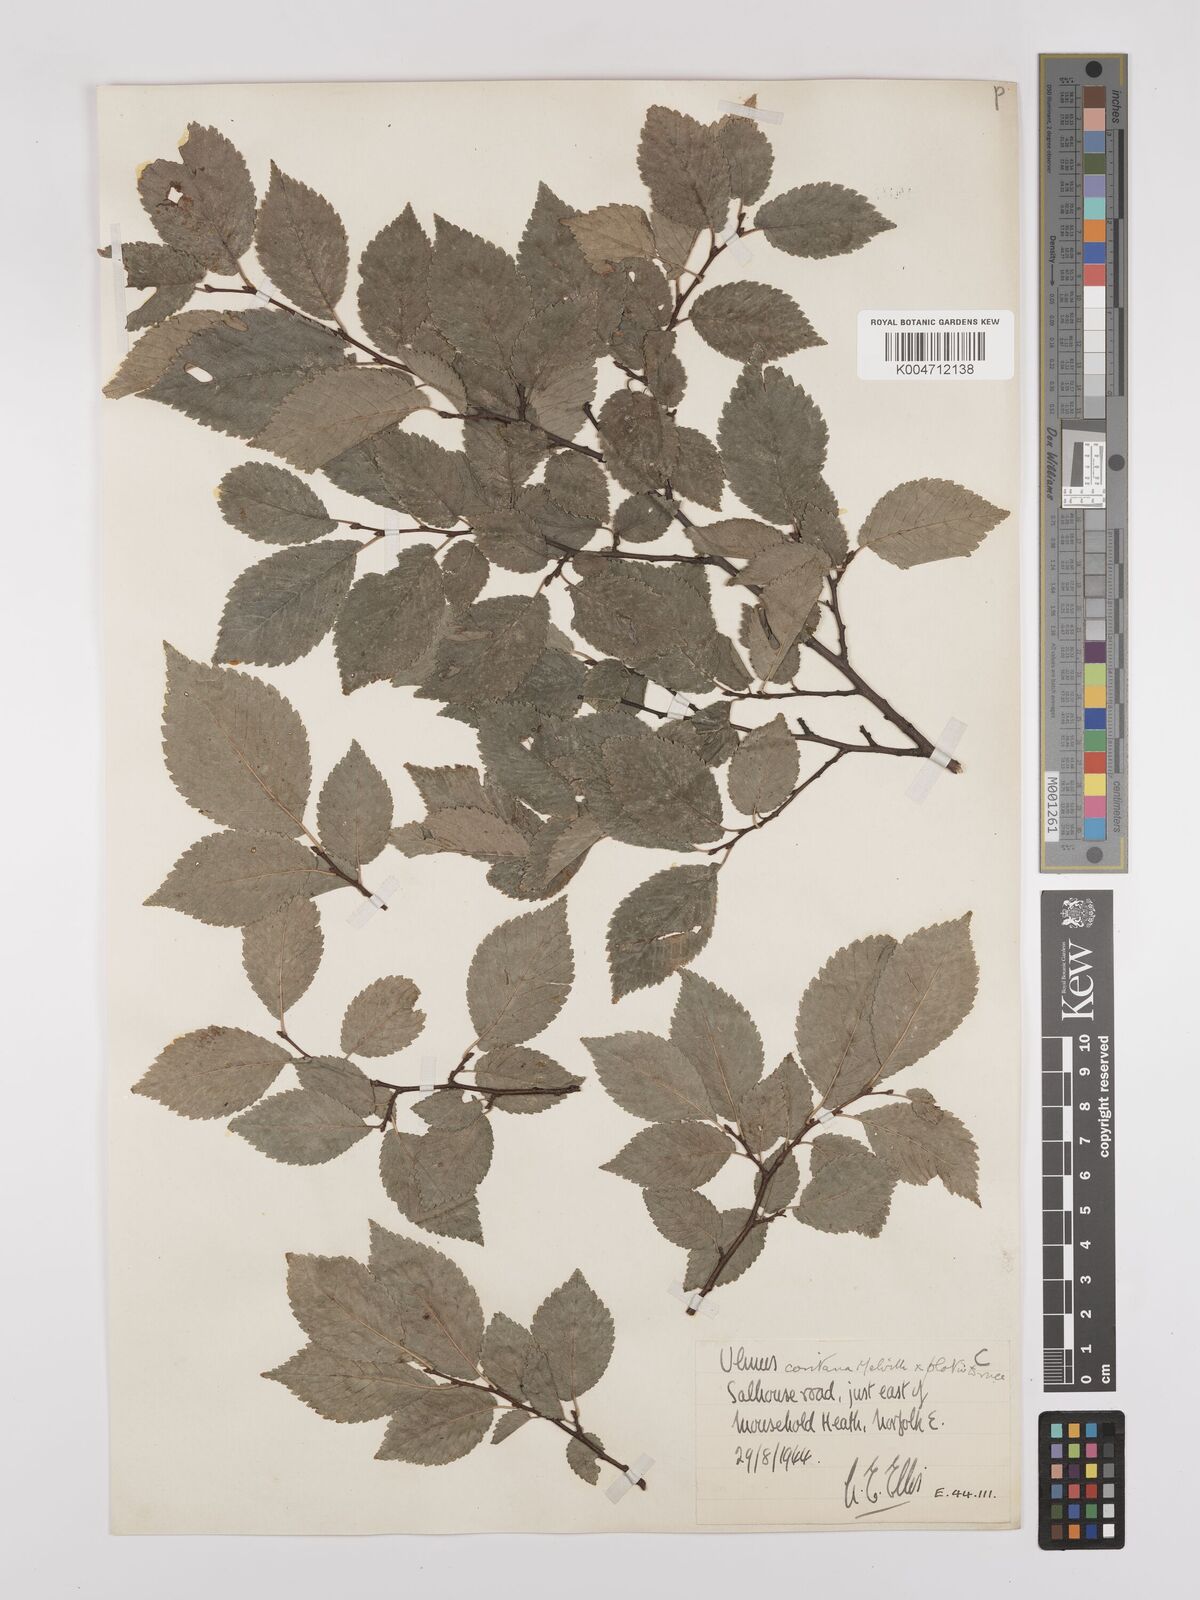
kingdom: Plantae
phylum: Tracheophyta
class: Magnoliopsida
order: Rosales
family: Ulmaceae
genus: Ulmus
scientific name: Ulmus minor
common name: Small-leaved elm
